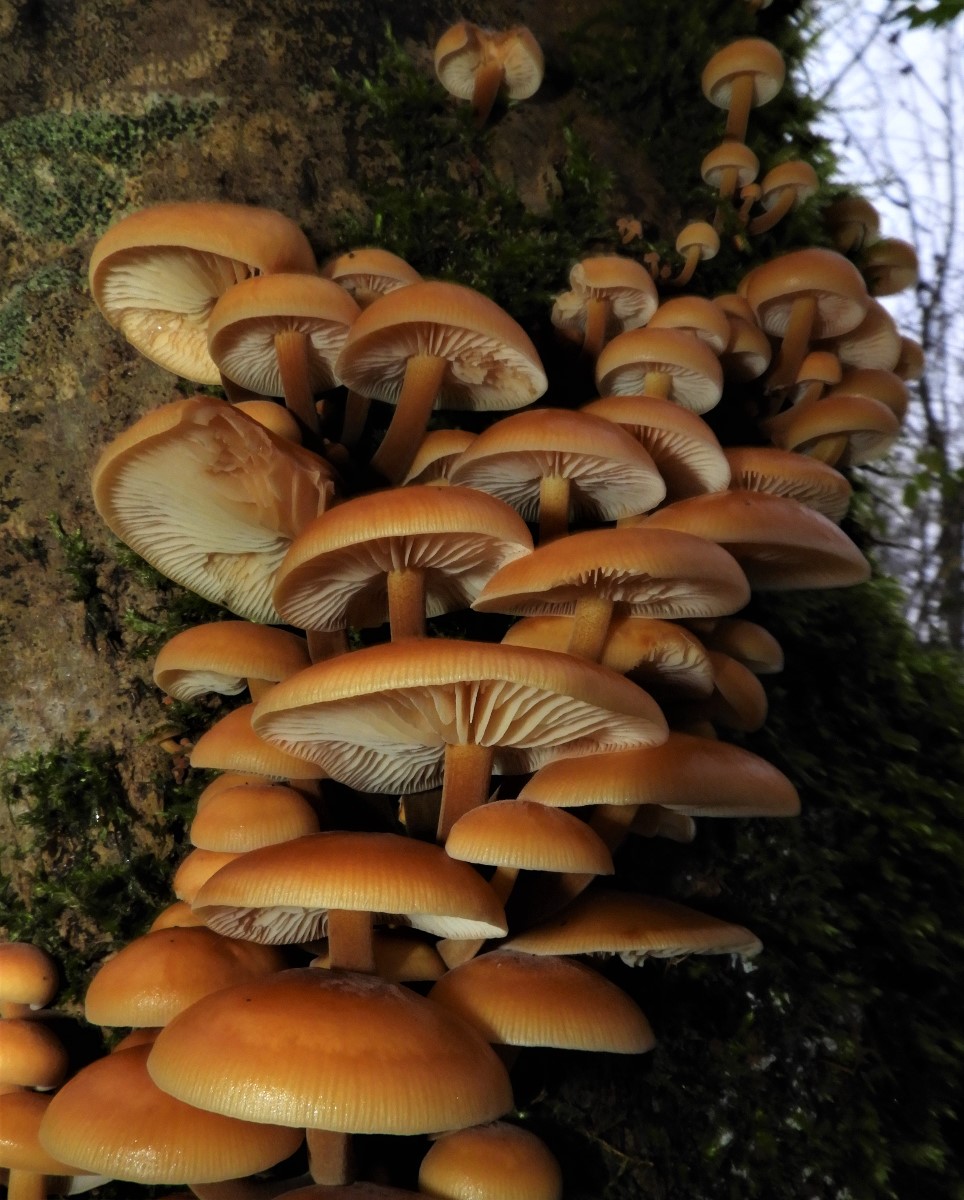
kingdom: Fungi
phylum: Basidiomycota
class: Agaricomycetes
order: Agaricales
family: Physalacriaceae
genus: Flammulina
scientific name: Flammulina velutipes
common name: gul fløjlsfod
